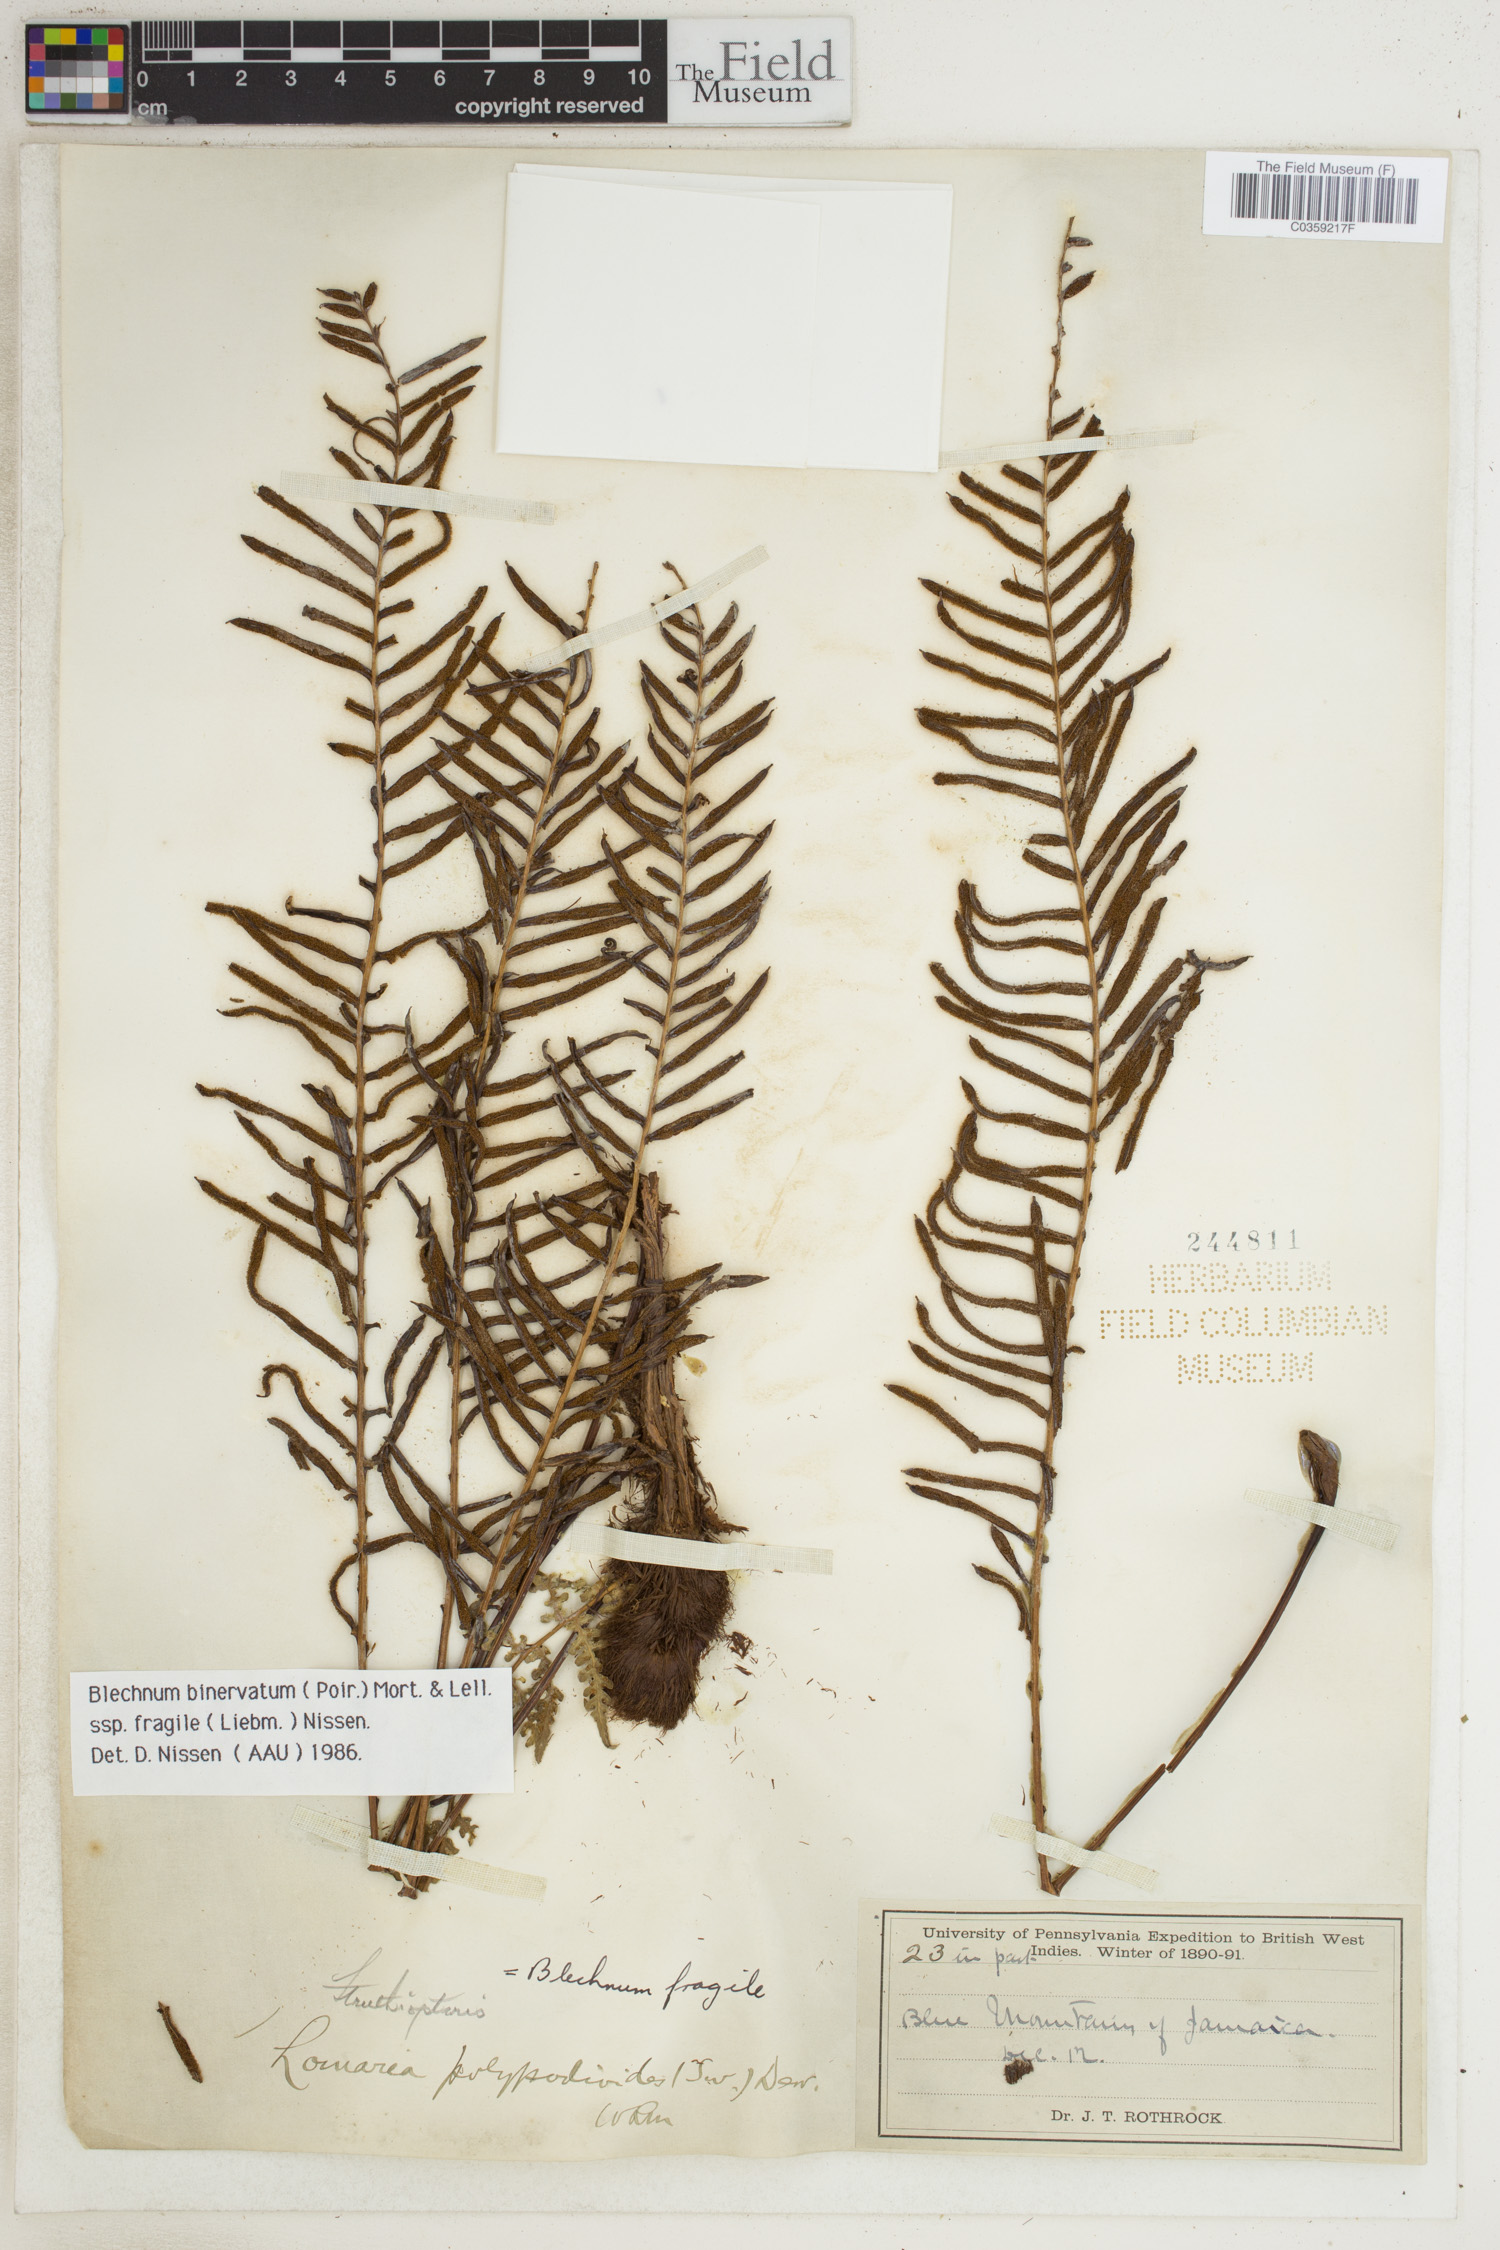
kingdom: Plantae
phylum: Tracheophyta
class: Polypodiopsida
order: Polypodiales
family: Blechnaceae
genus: Lomaridium
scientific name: Lomaridium binervatum
